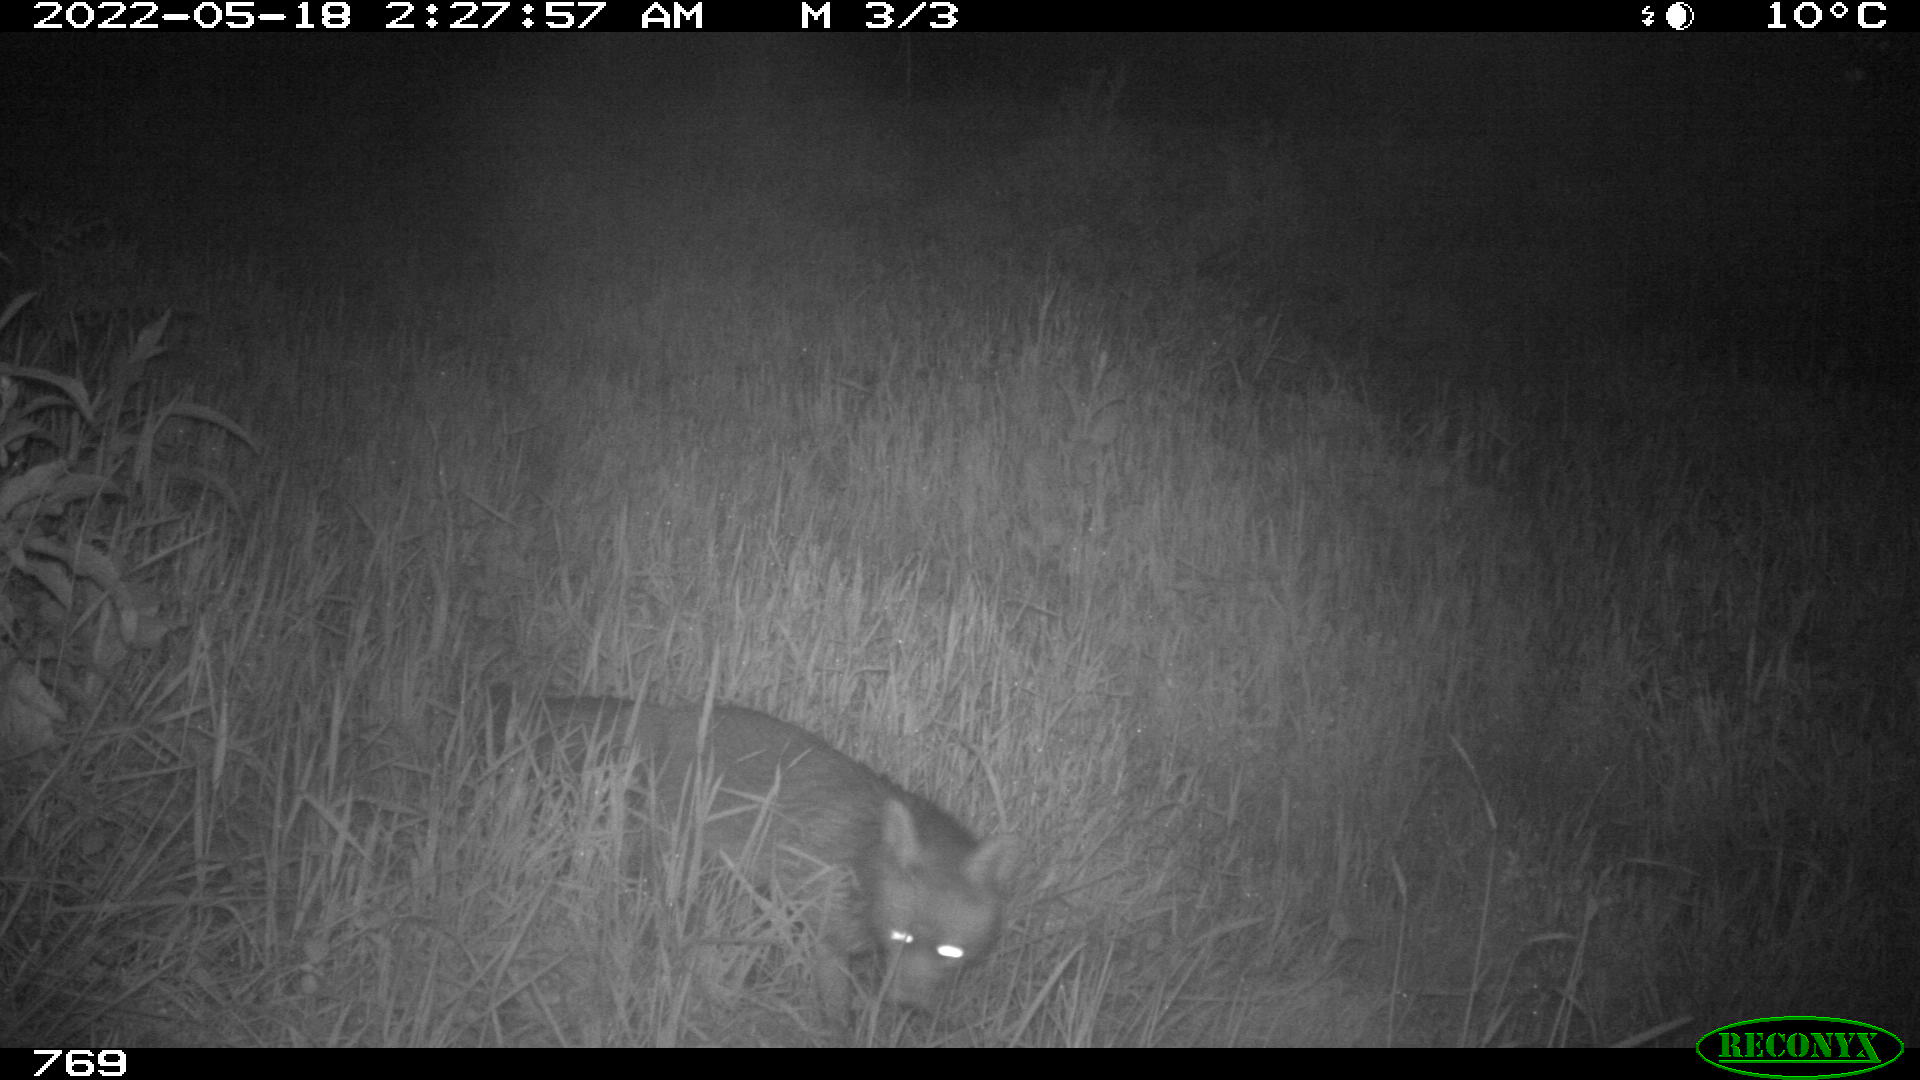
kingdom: Animalia
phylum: Chordata
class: Mammalia
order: Carnivora
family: Canidae
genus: Vulpes
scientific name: Vulpes vulpes
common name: Red fox
